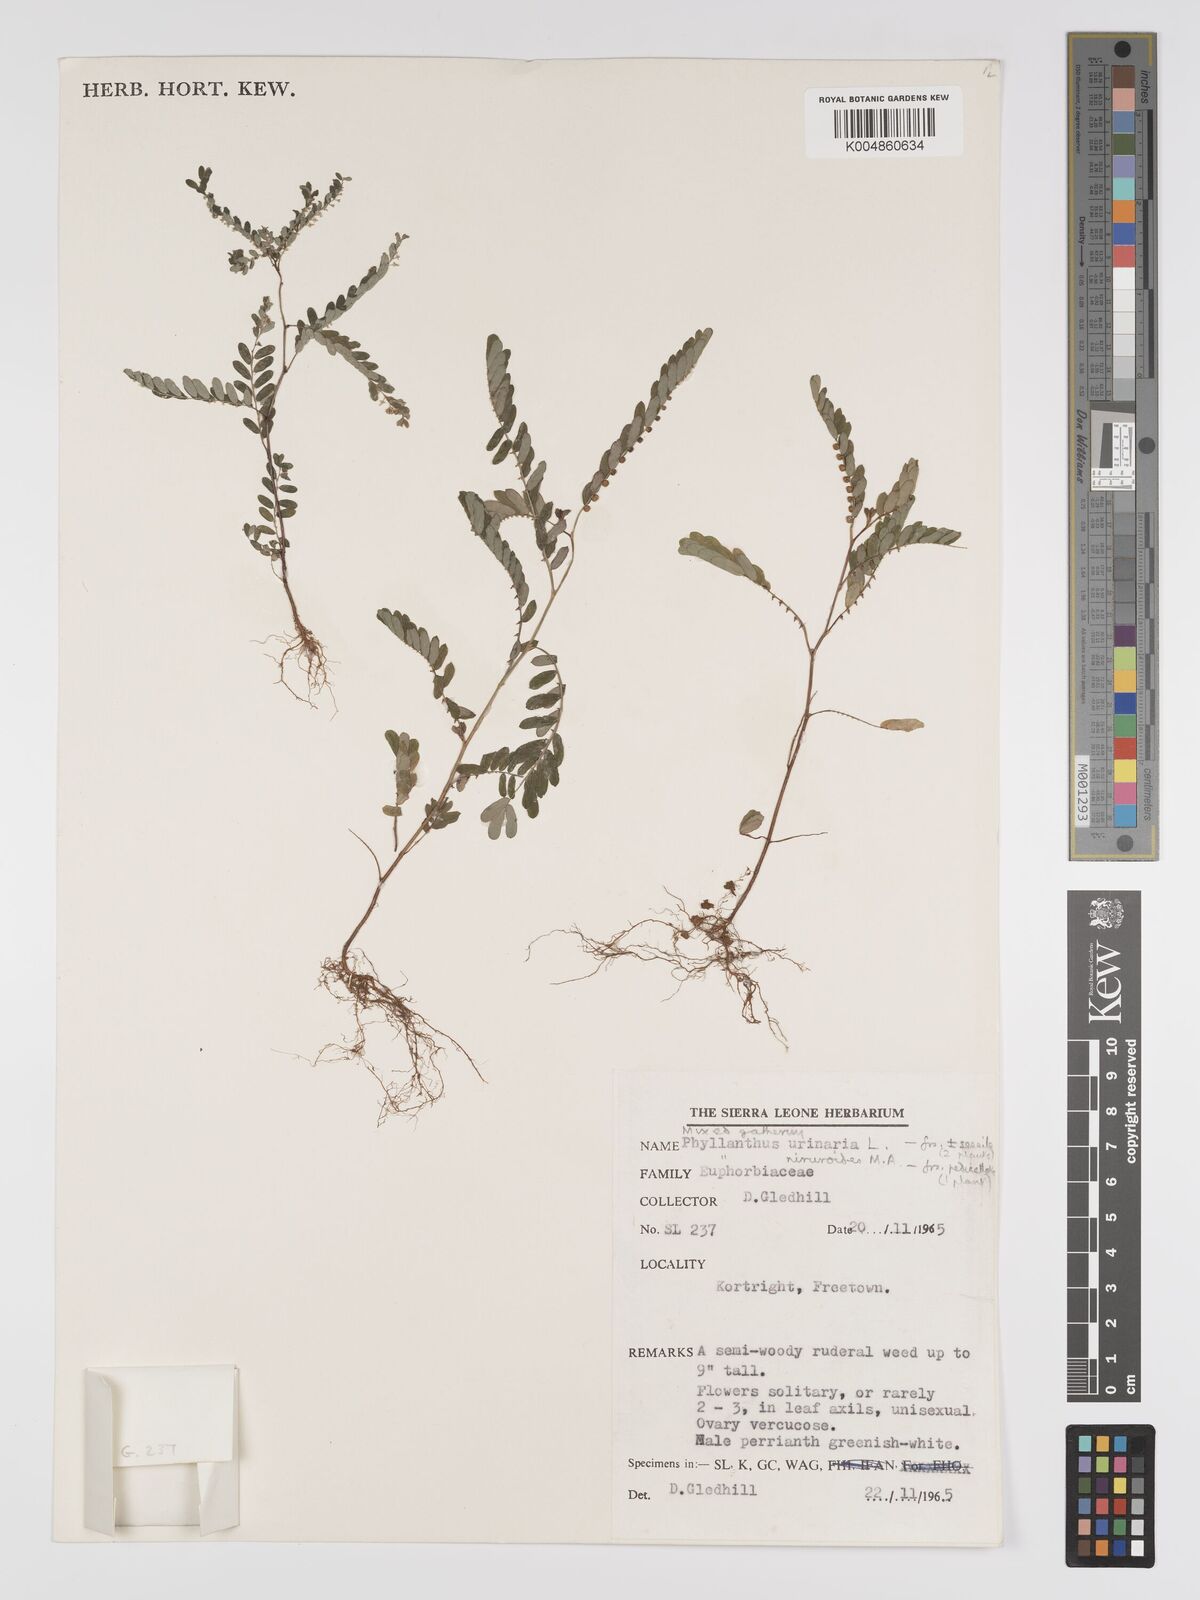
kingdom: Plantae
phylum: Tracheophyta
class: Magnoliopsida
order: Malpighiales
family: Phyllanthaceae
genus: Phyllanthus
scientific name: Phyllanthus urinaria
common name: Chamber bitter
